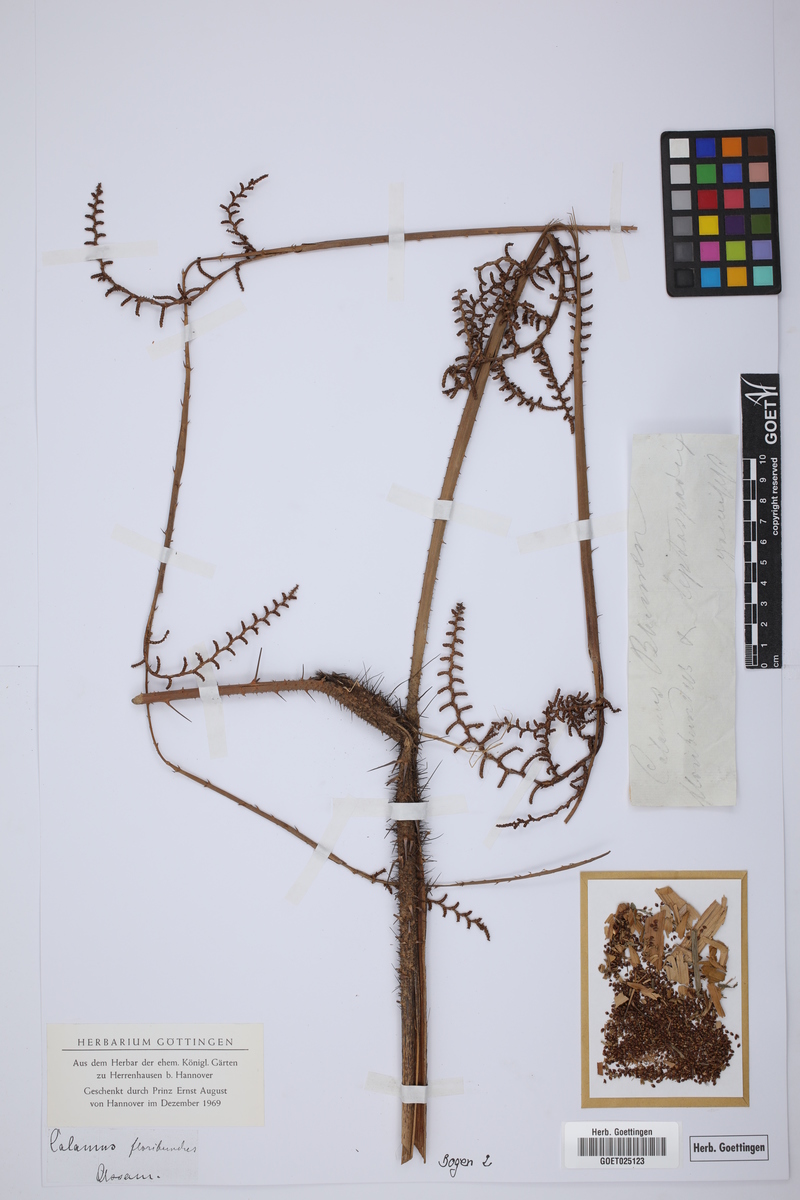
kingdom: Plantae
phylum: Tracheophyta
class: Liliopsida
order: Arecales
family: Arecaceae
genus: Calamus
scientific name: Calamus floribundus
